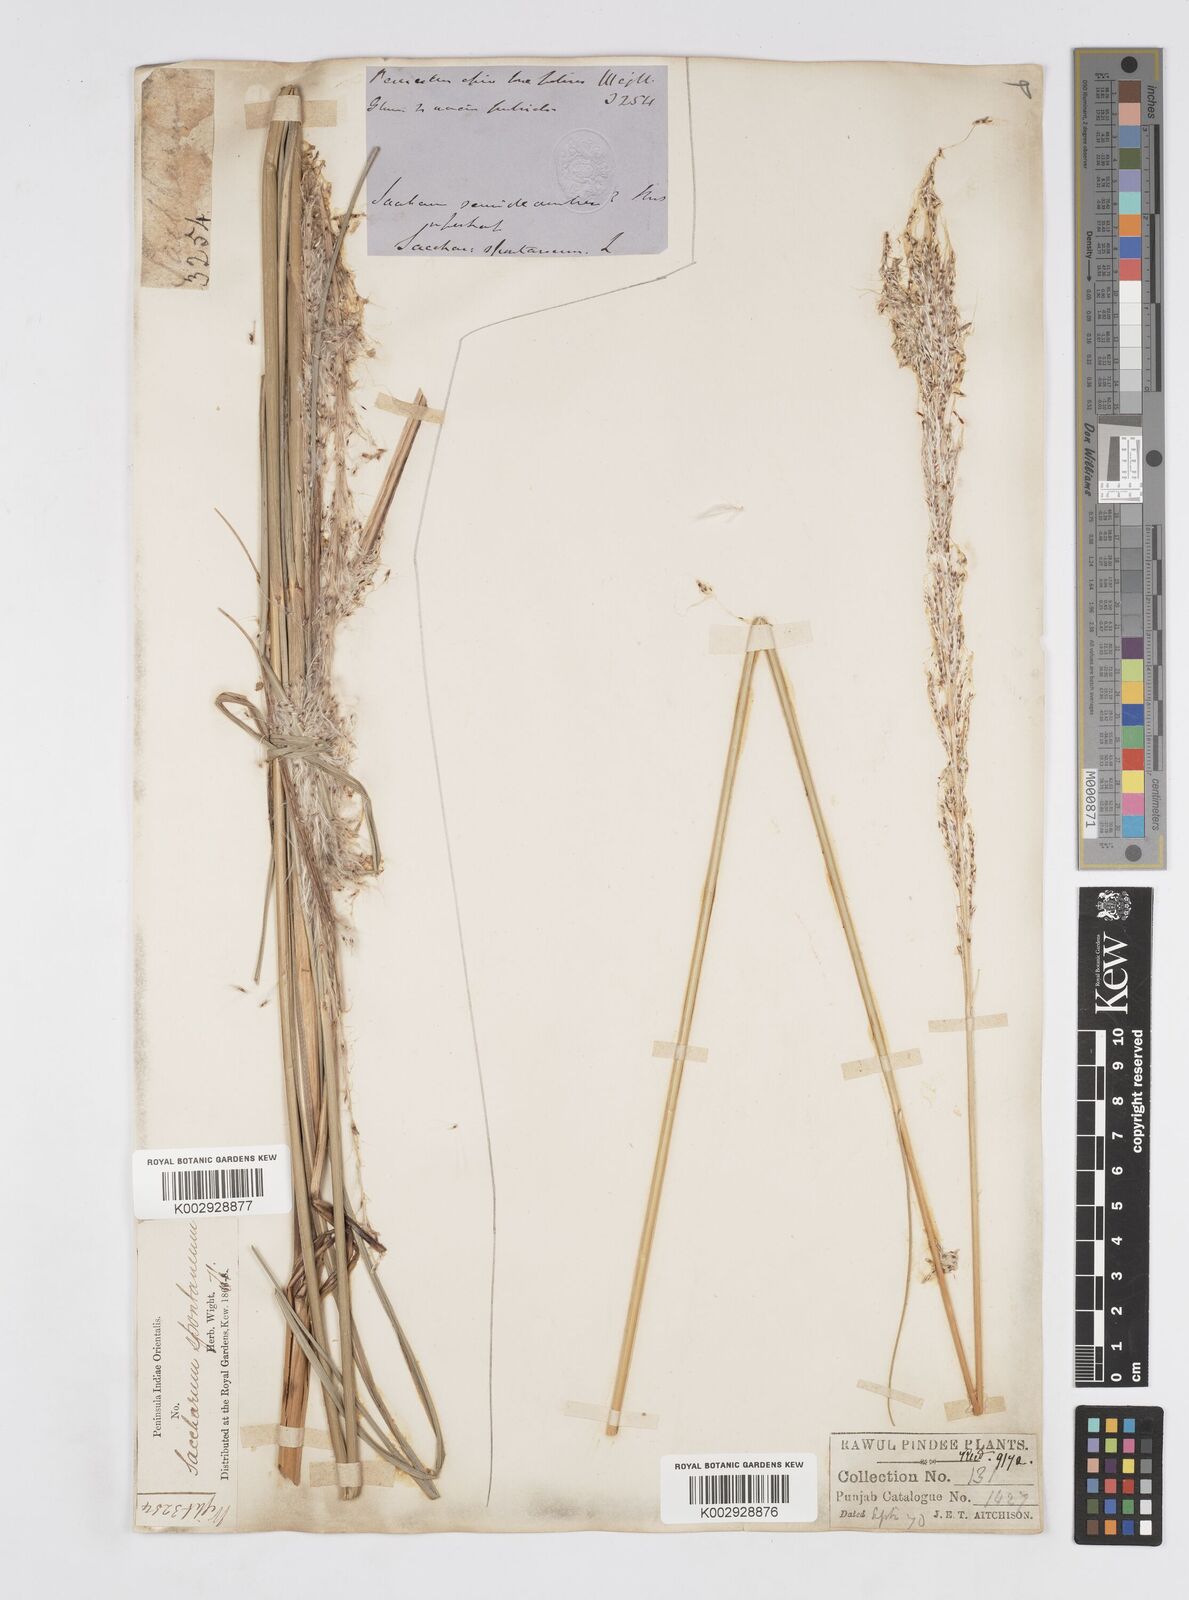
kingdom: Plantae
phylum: Tracheophyta
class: Liliopsida
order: Poales
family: Poaceae
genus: Saccharum
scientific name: Saccharum spontaneum
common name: Wild sugarcane
